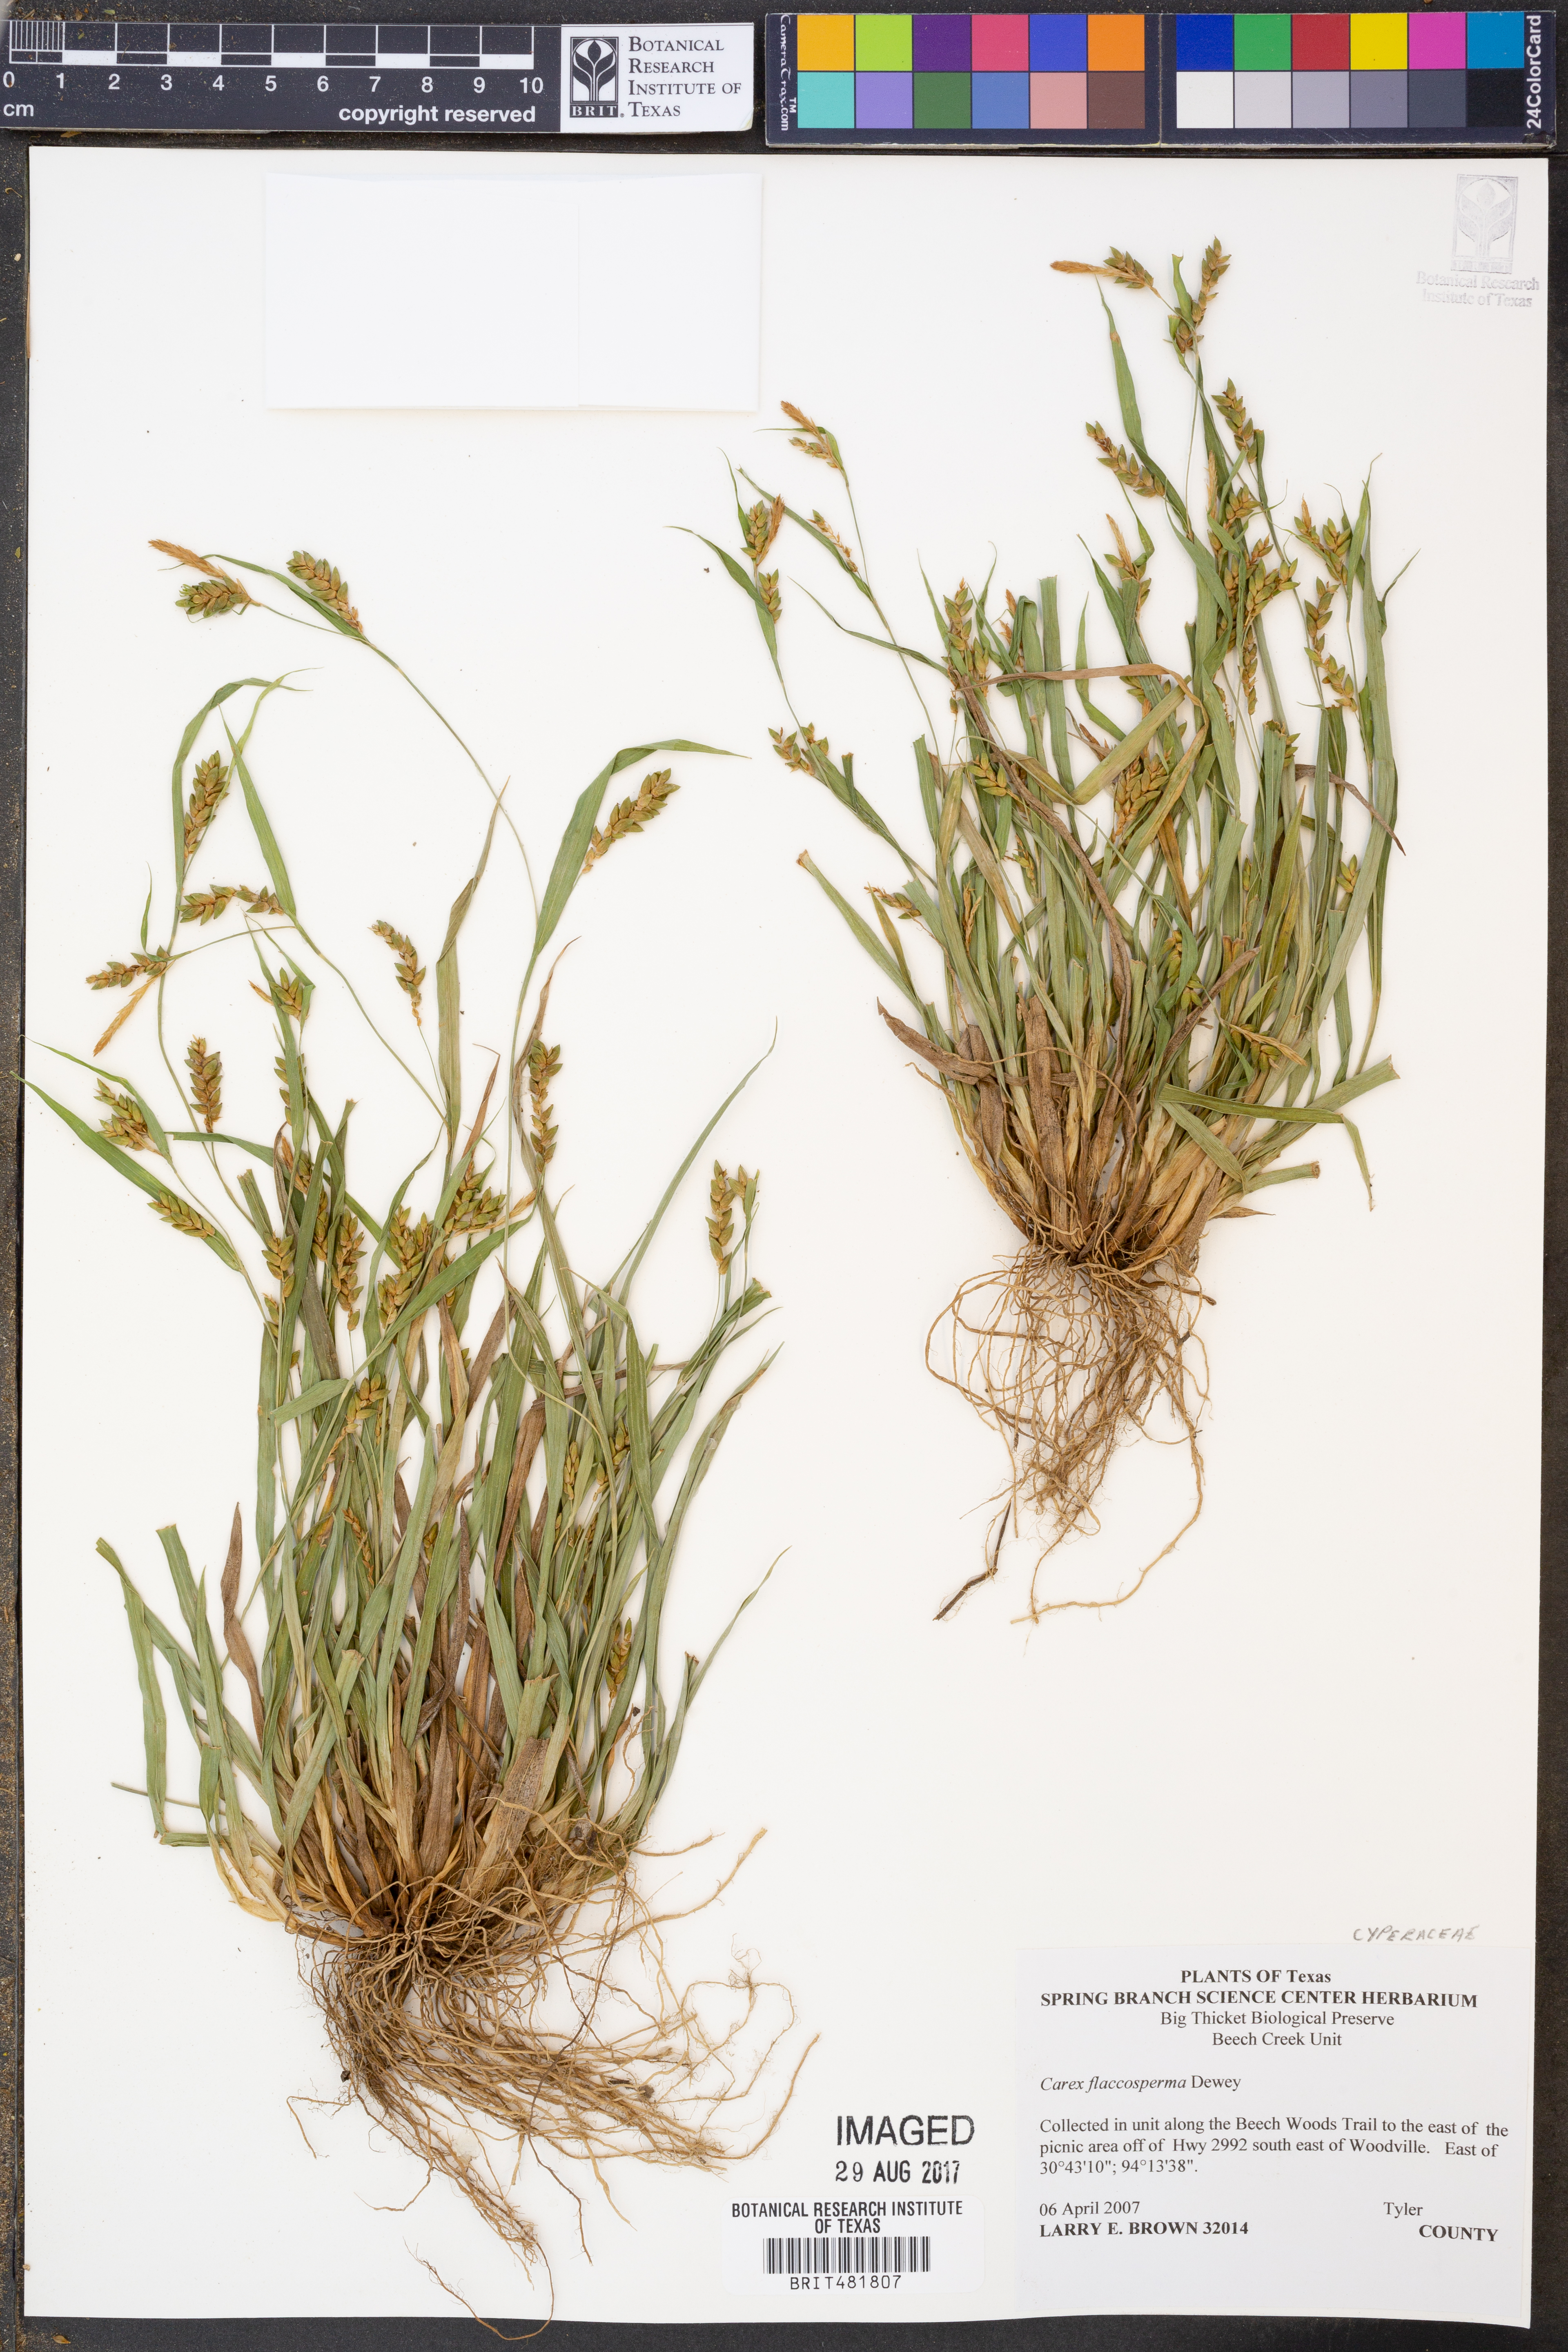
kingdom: Plantae
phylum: Tracheophyta
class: Liliopsida
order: Poales
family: Cyperaceae
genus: Carex
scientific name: Carex flaccosperma
